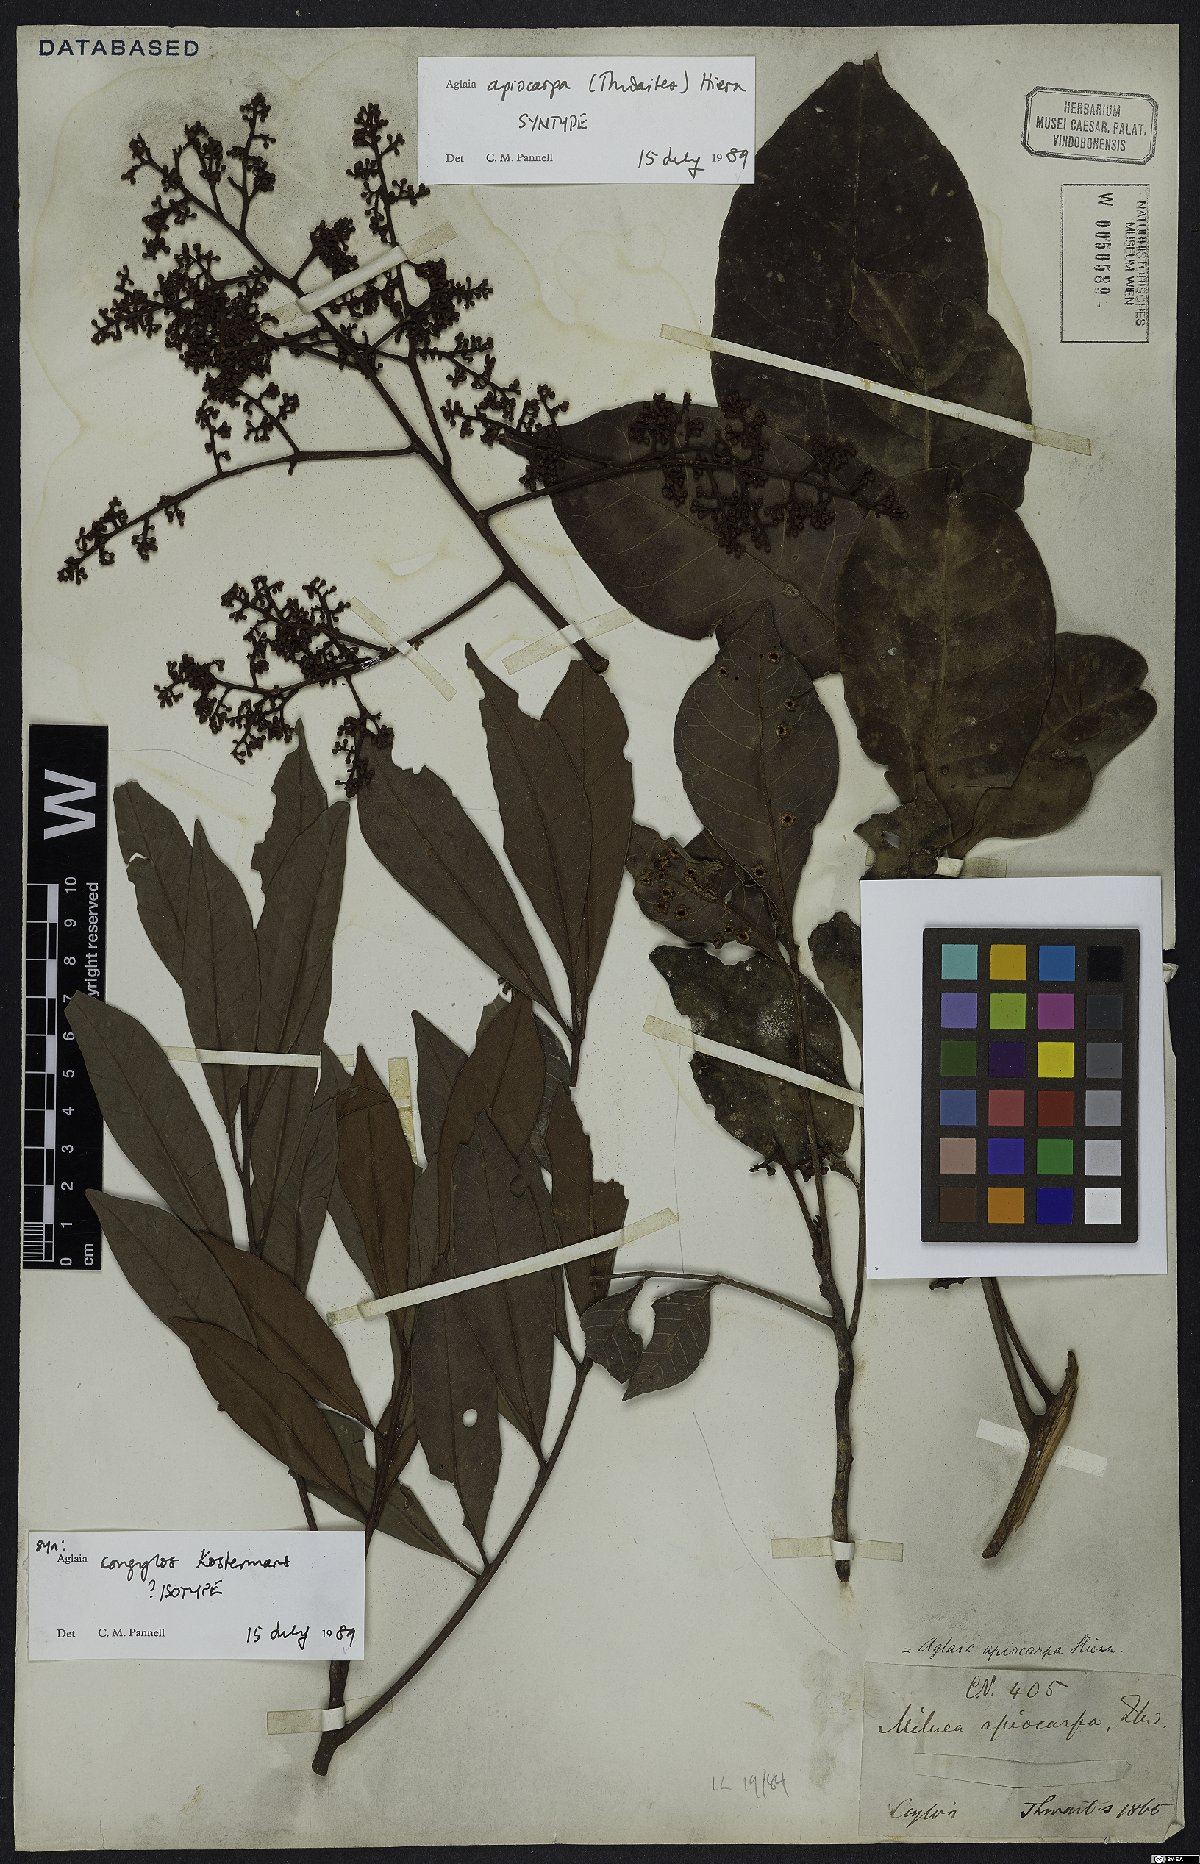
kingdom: Plantae
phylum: Tracheophyta
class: Magnoliopsida
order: Sapindales
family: Meliaceae
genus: Aglaia
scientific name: Aglaia apiocarpa
